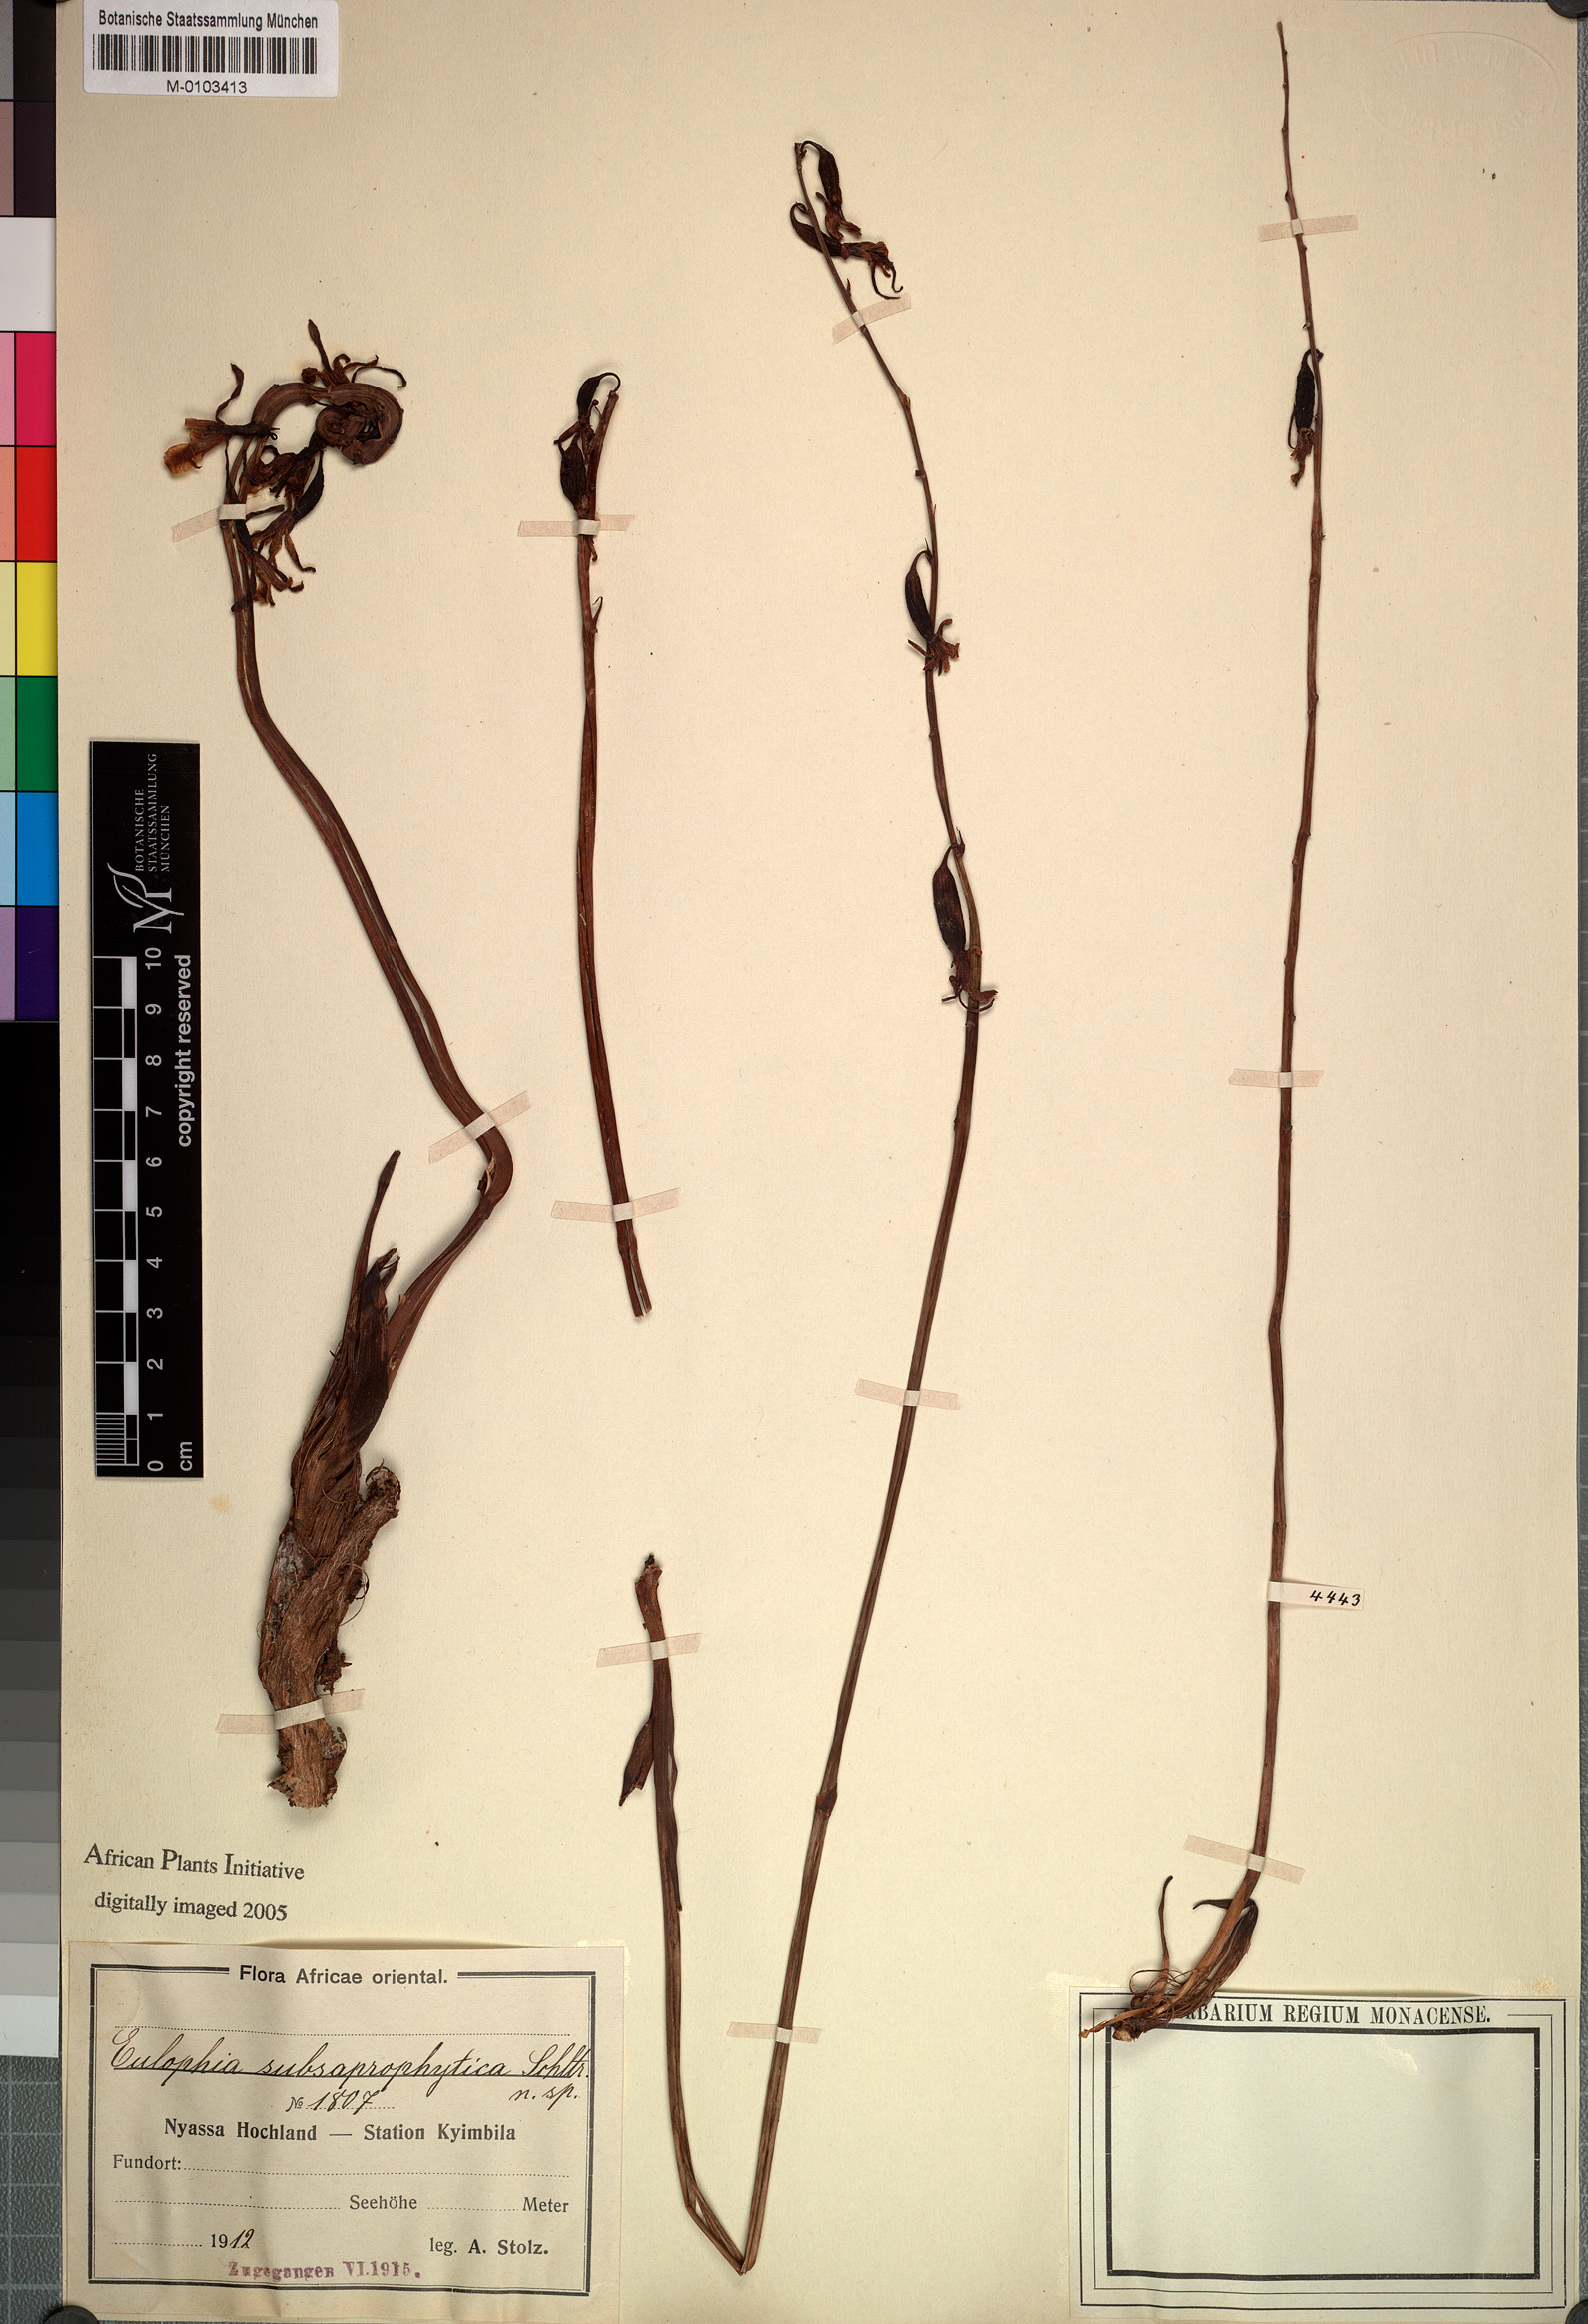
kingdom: Plantae
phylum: Tracheophyta
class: Liliopsida
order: Asparagales
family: Orchidaceae
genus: Eulophia
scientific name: Eulophia subsaprophytica
